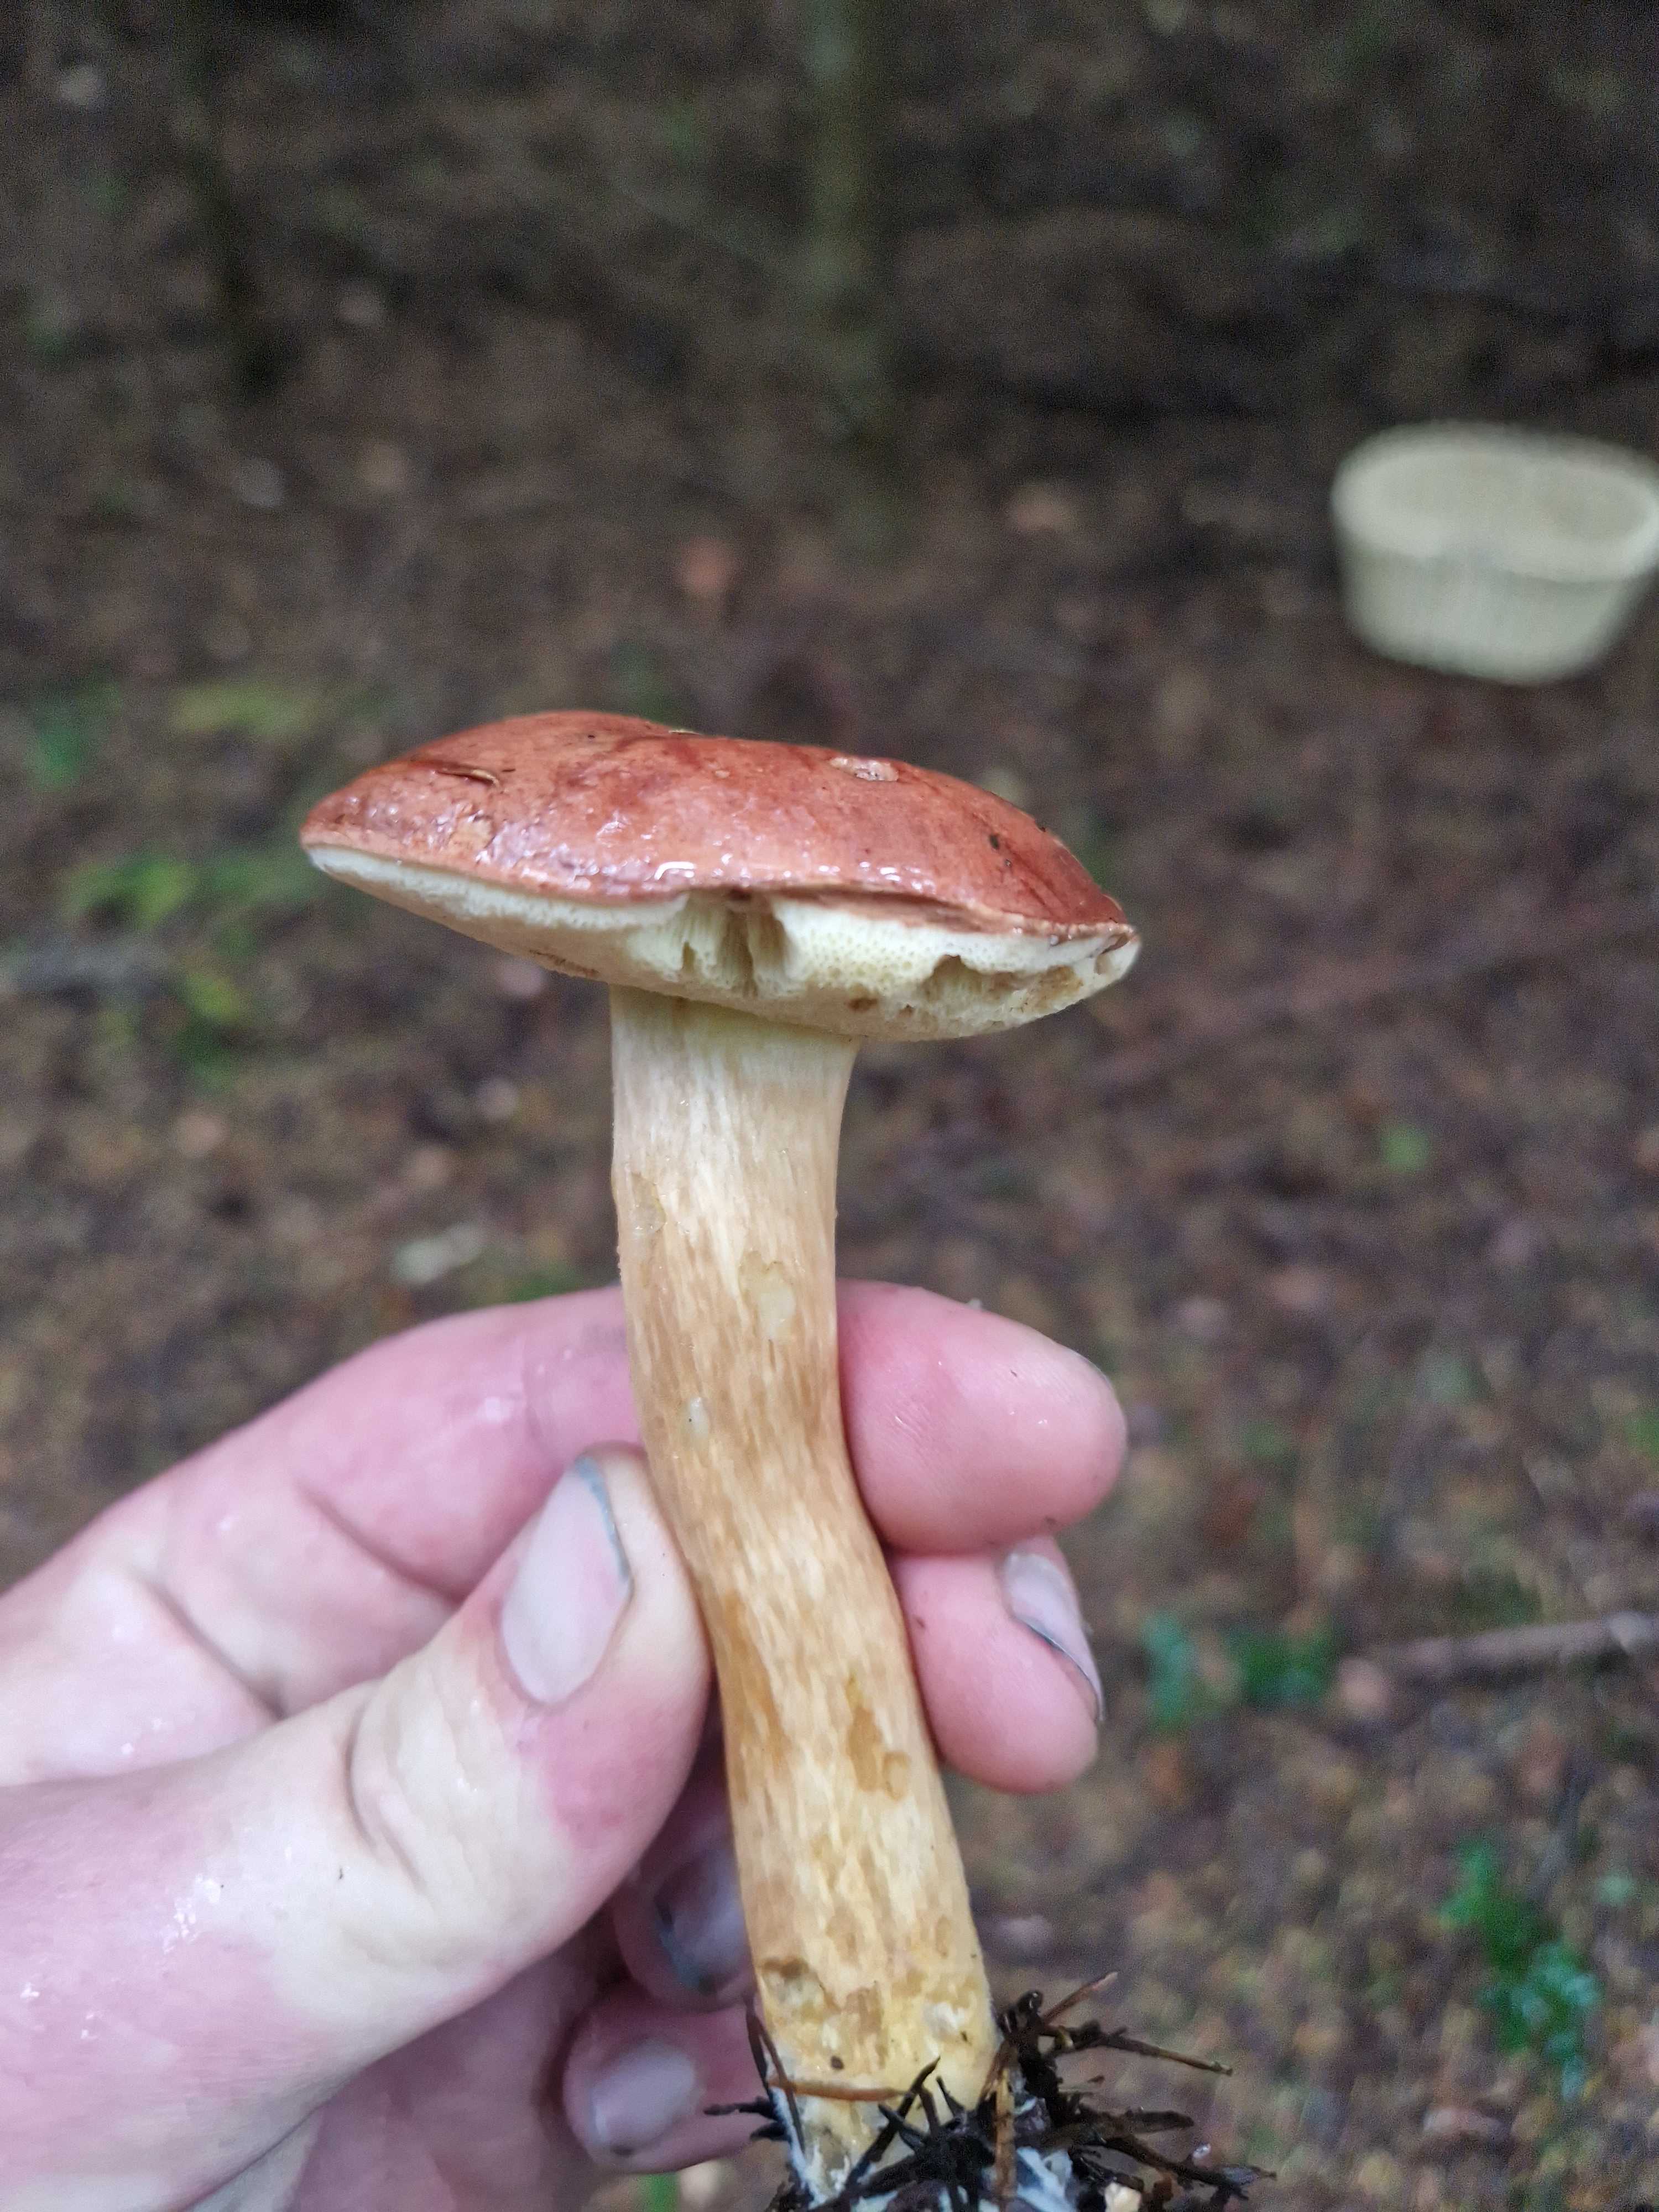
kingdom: Fungi
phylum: Basidiomycota
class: Agaricomycetes
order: Boletales
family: Boletaceae
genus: Imleria
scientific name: Imleria badia
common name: brunstokket rørhat
